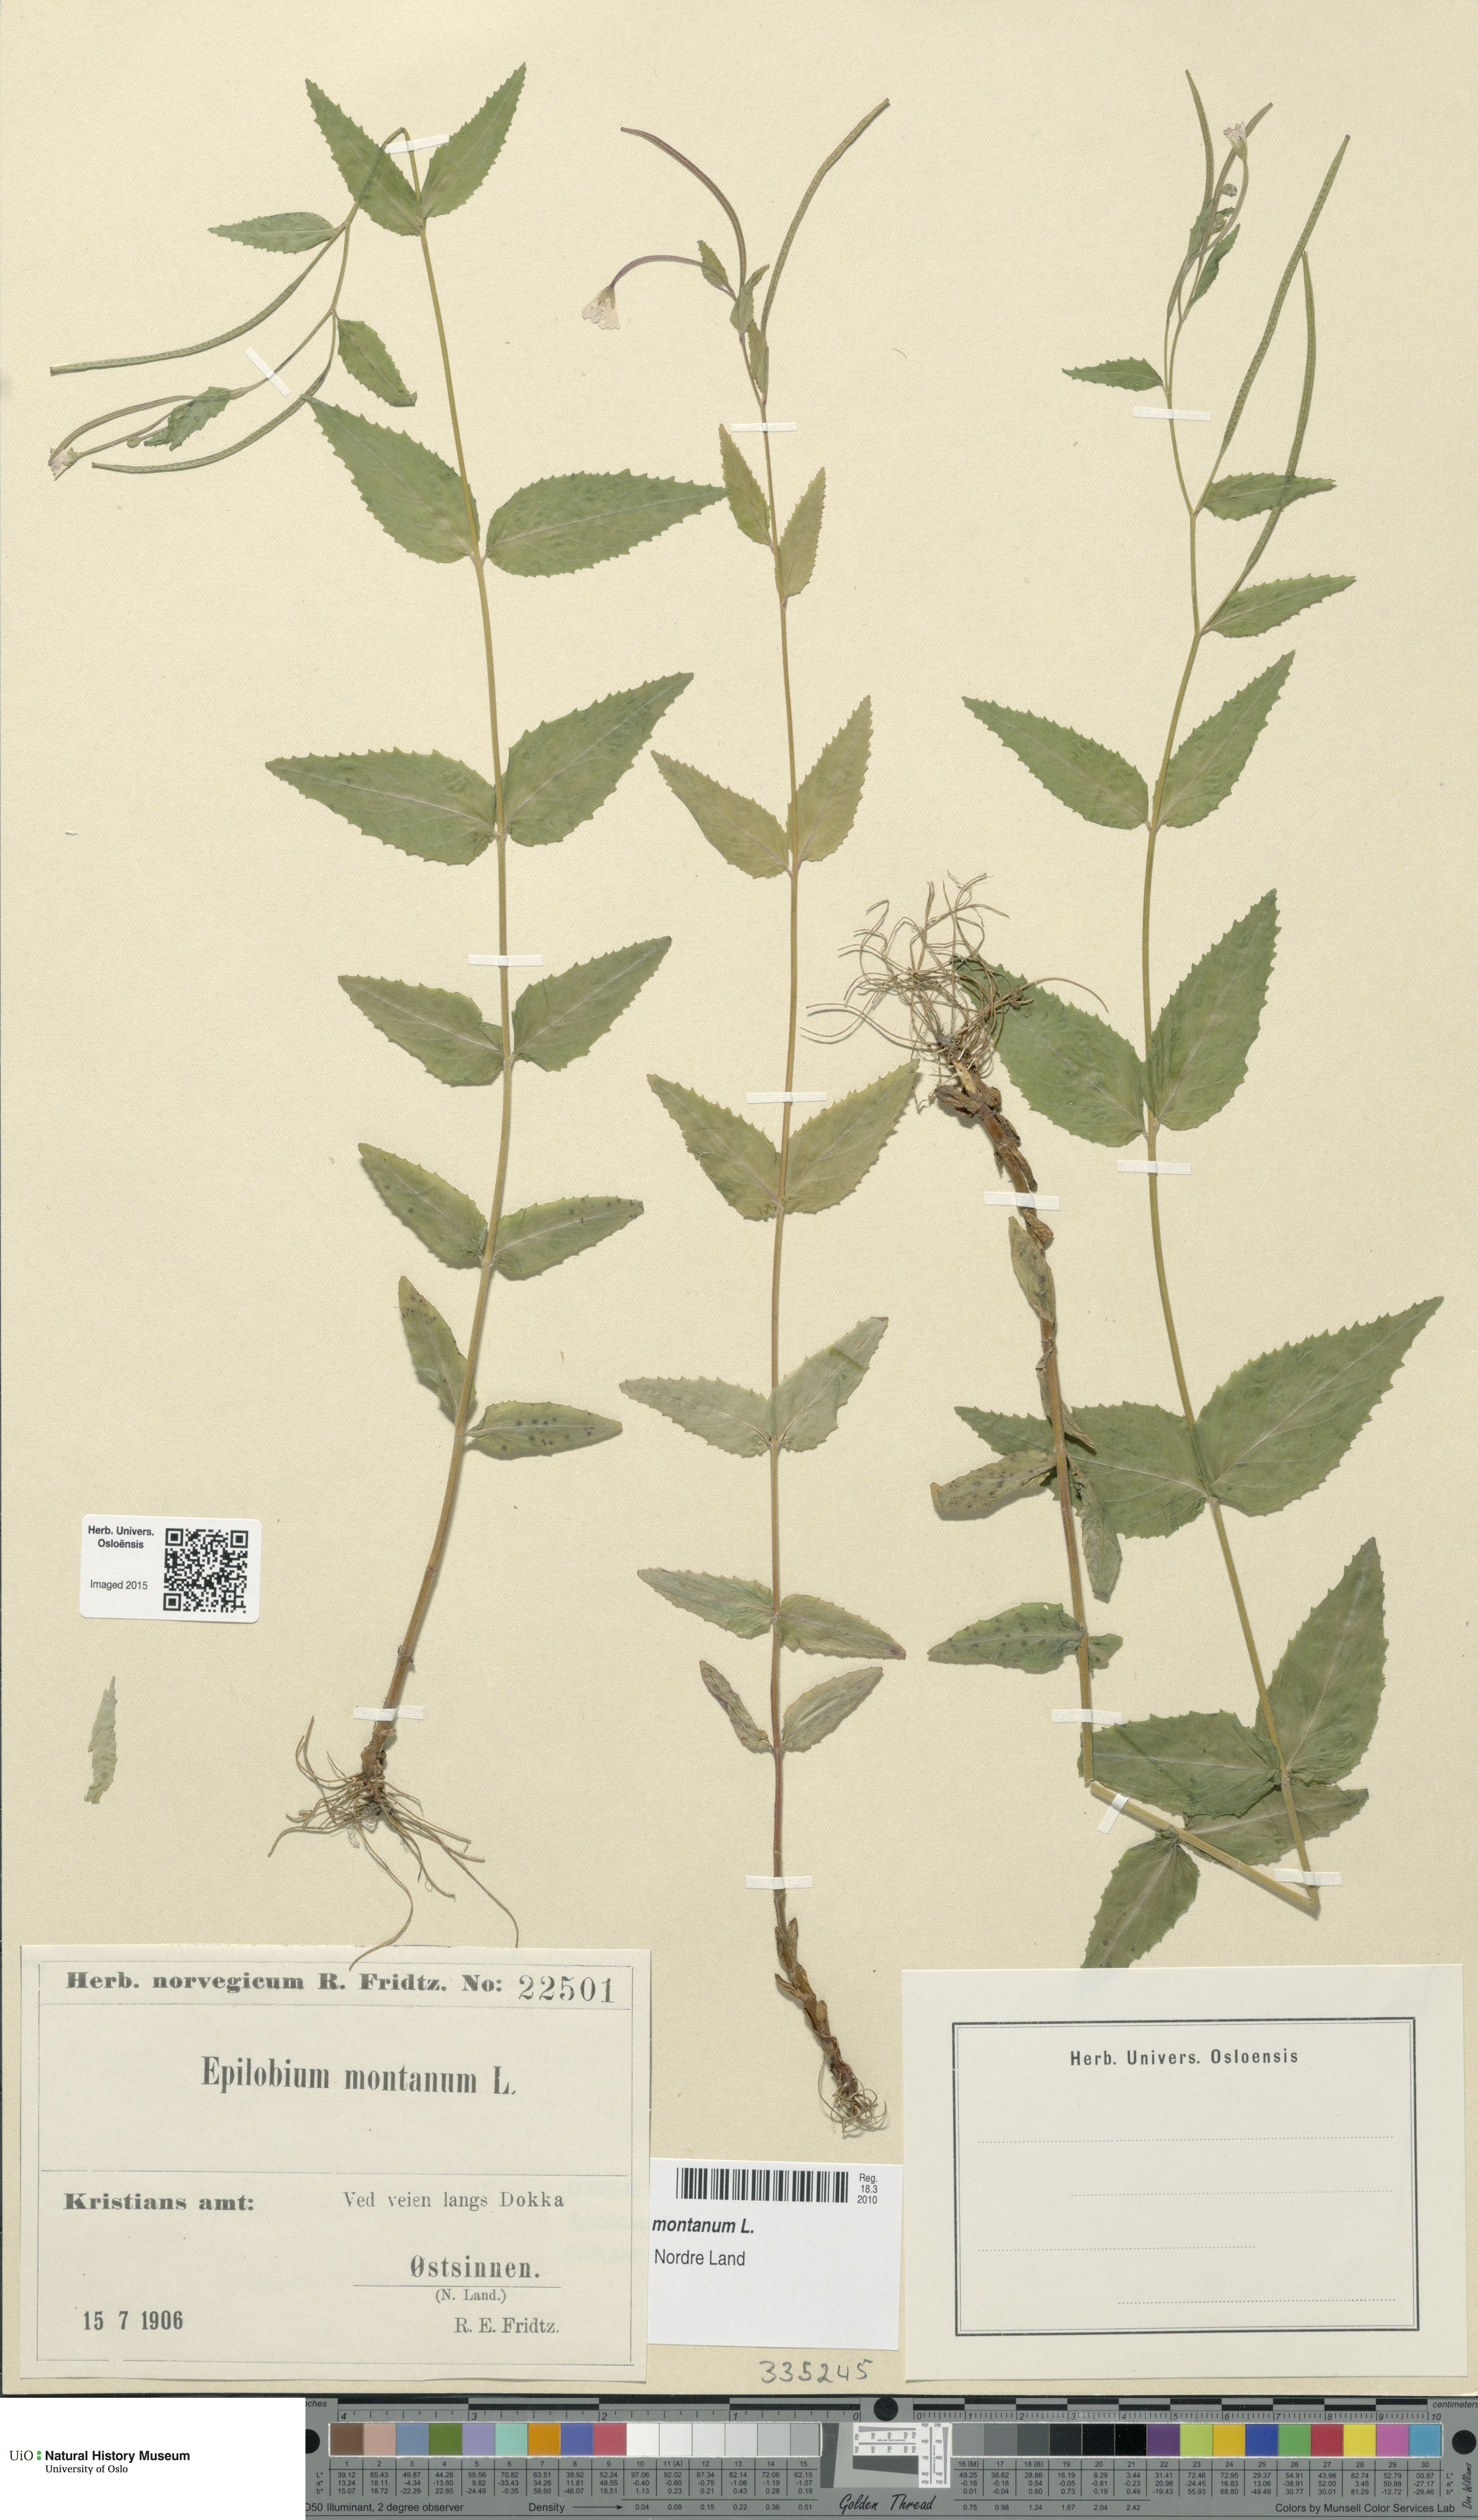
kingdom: Plantae
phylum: Tracheophyta
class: Magnoliopsida
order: Myrtales
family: Onagraceae
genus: Epilobium
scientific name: Epilobium montanum
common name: Broad-leaved willowherb
